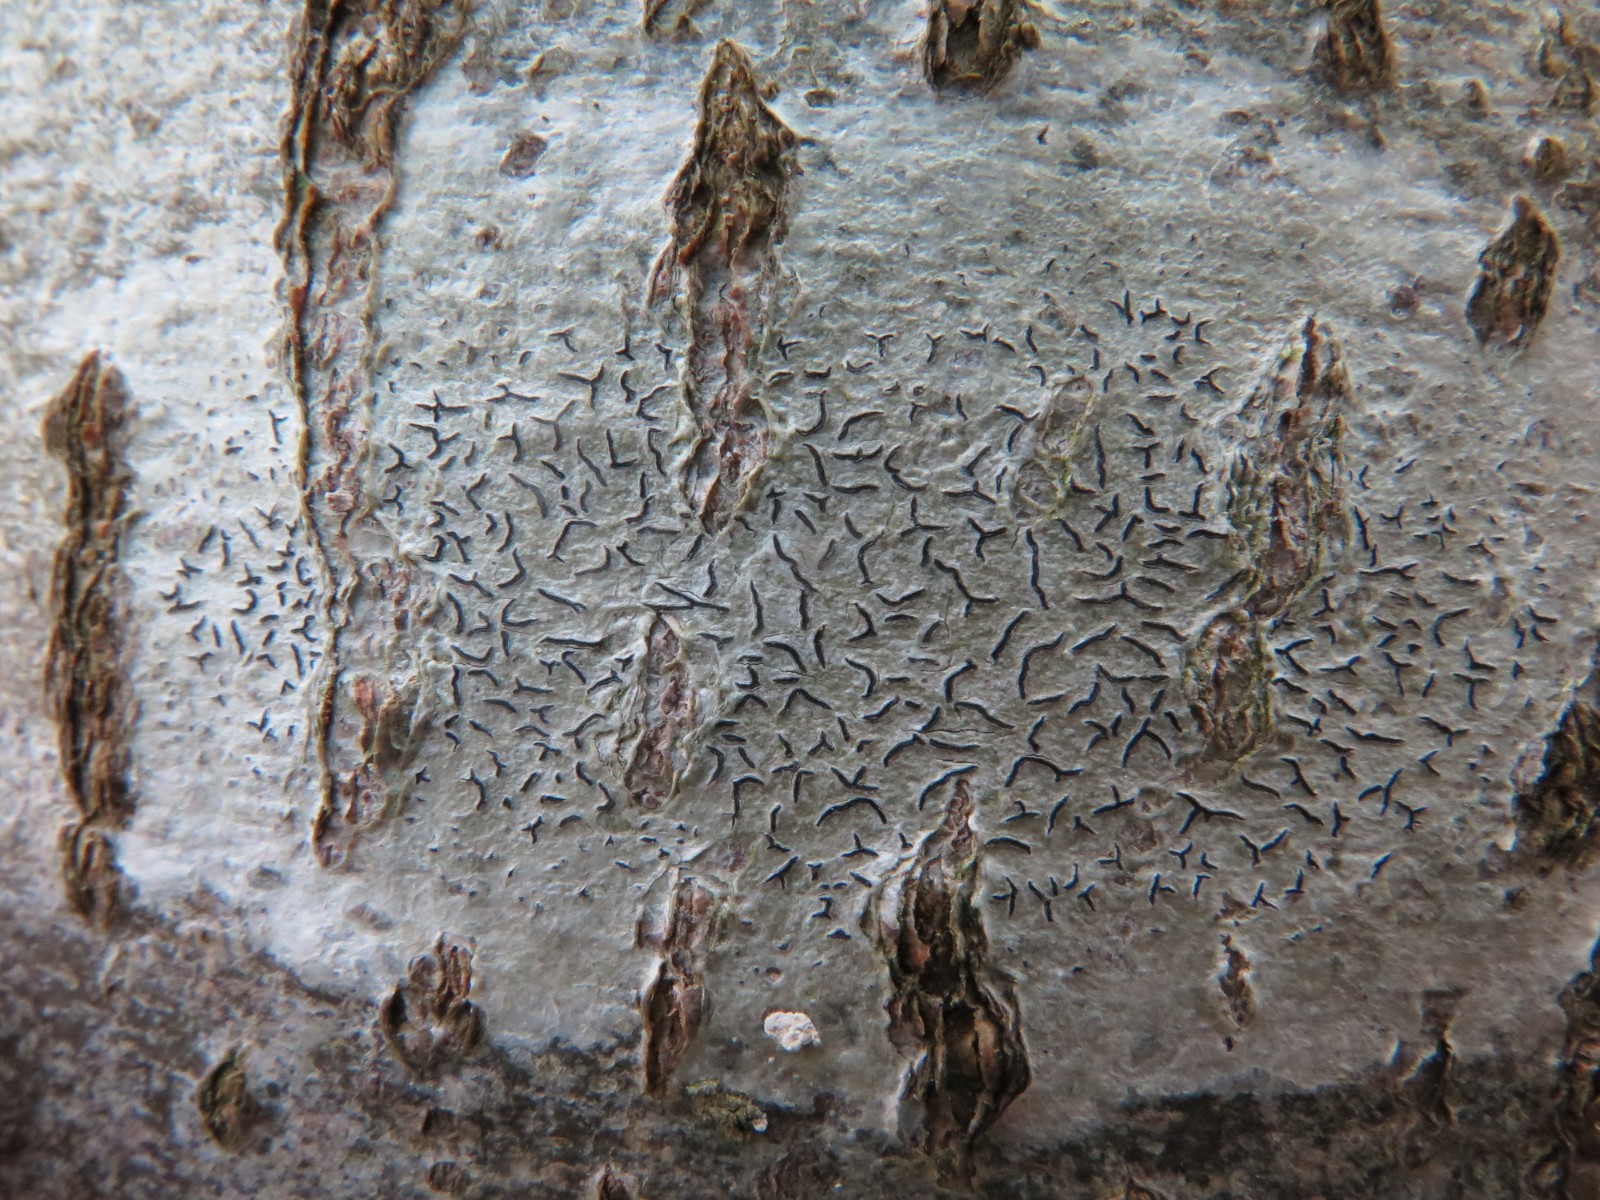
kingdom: Fungi
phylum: Ascomycota
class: Lecanoromycetes
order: Ostropales
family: Graphidaceae
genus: Graphis
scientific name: Graphis scripta
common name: almindelig skriftlav
